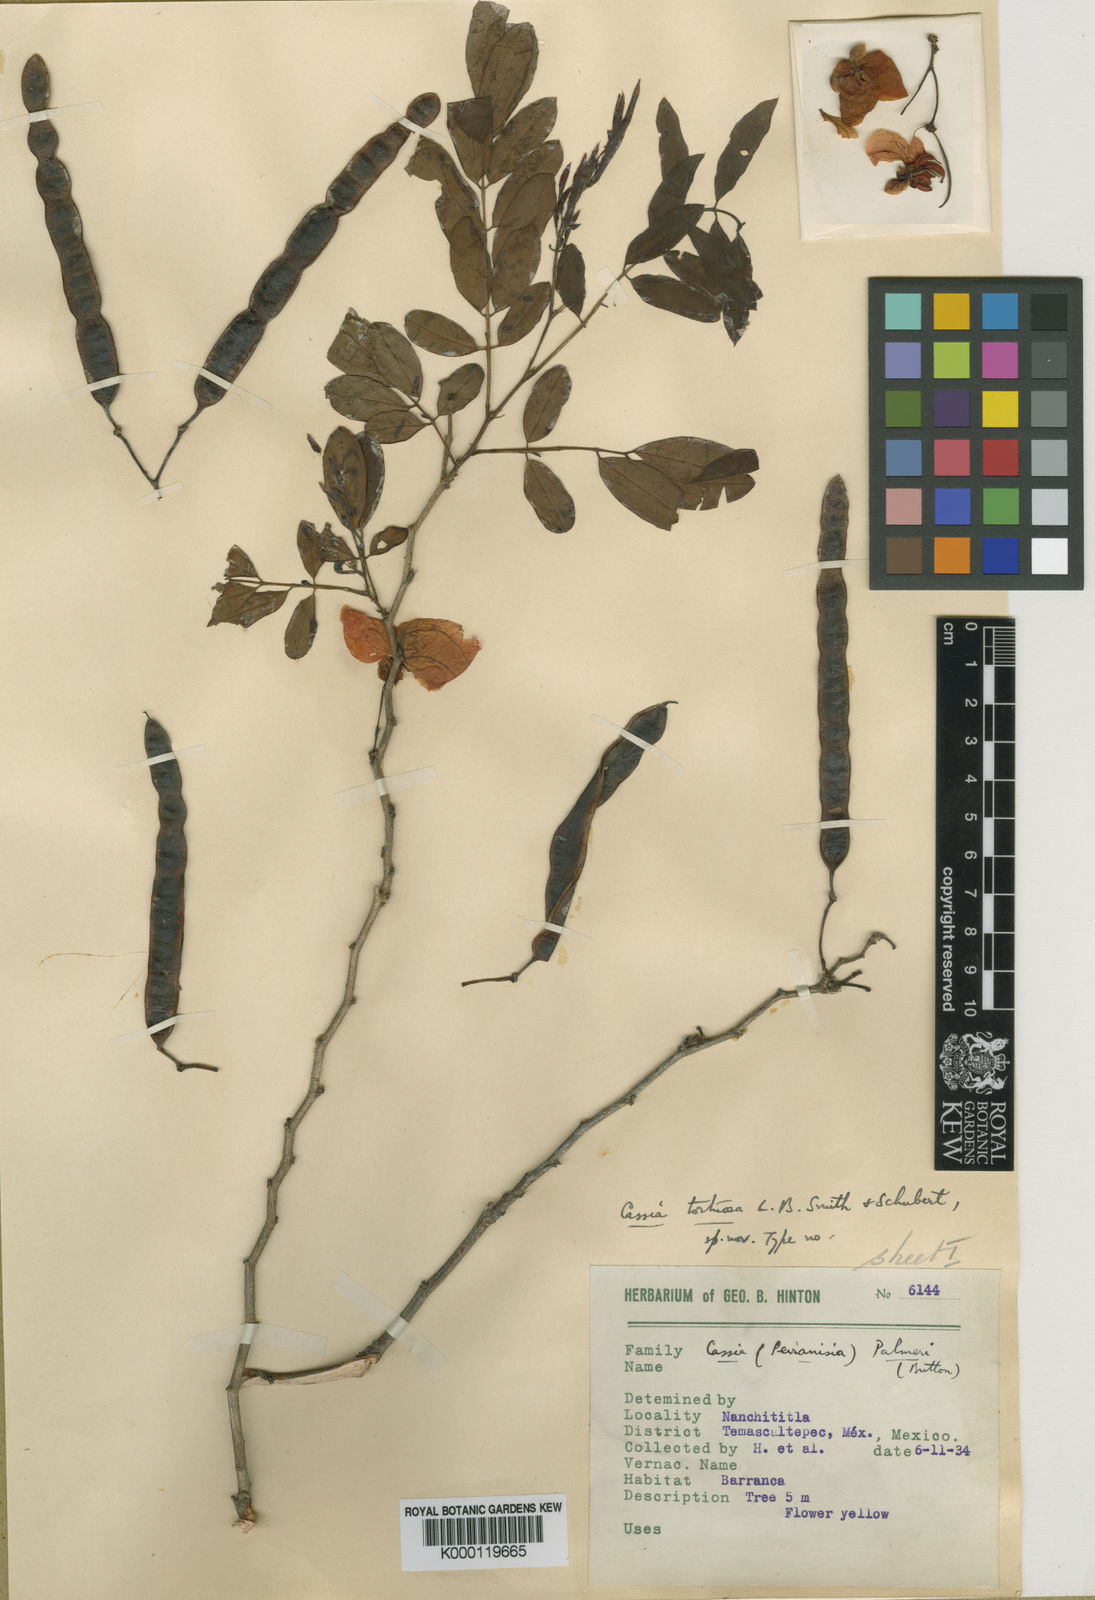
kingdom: Plantae
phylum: Tracheophyta
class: Magnoliopsida
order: Fabales
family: Fabaceae
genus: Senna
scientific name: Senna pallida
